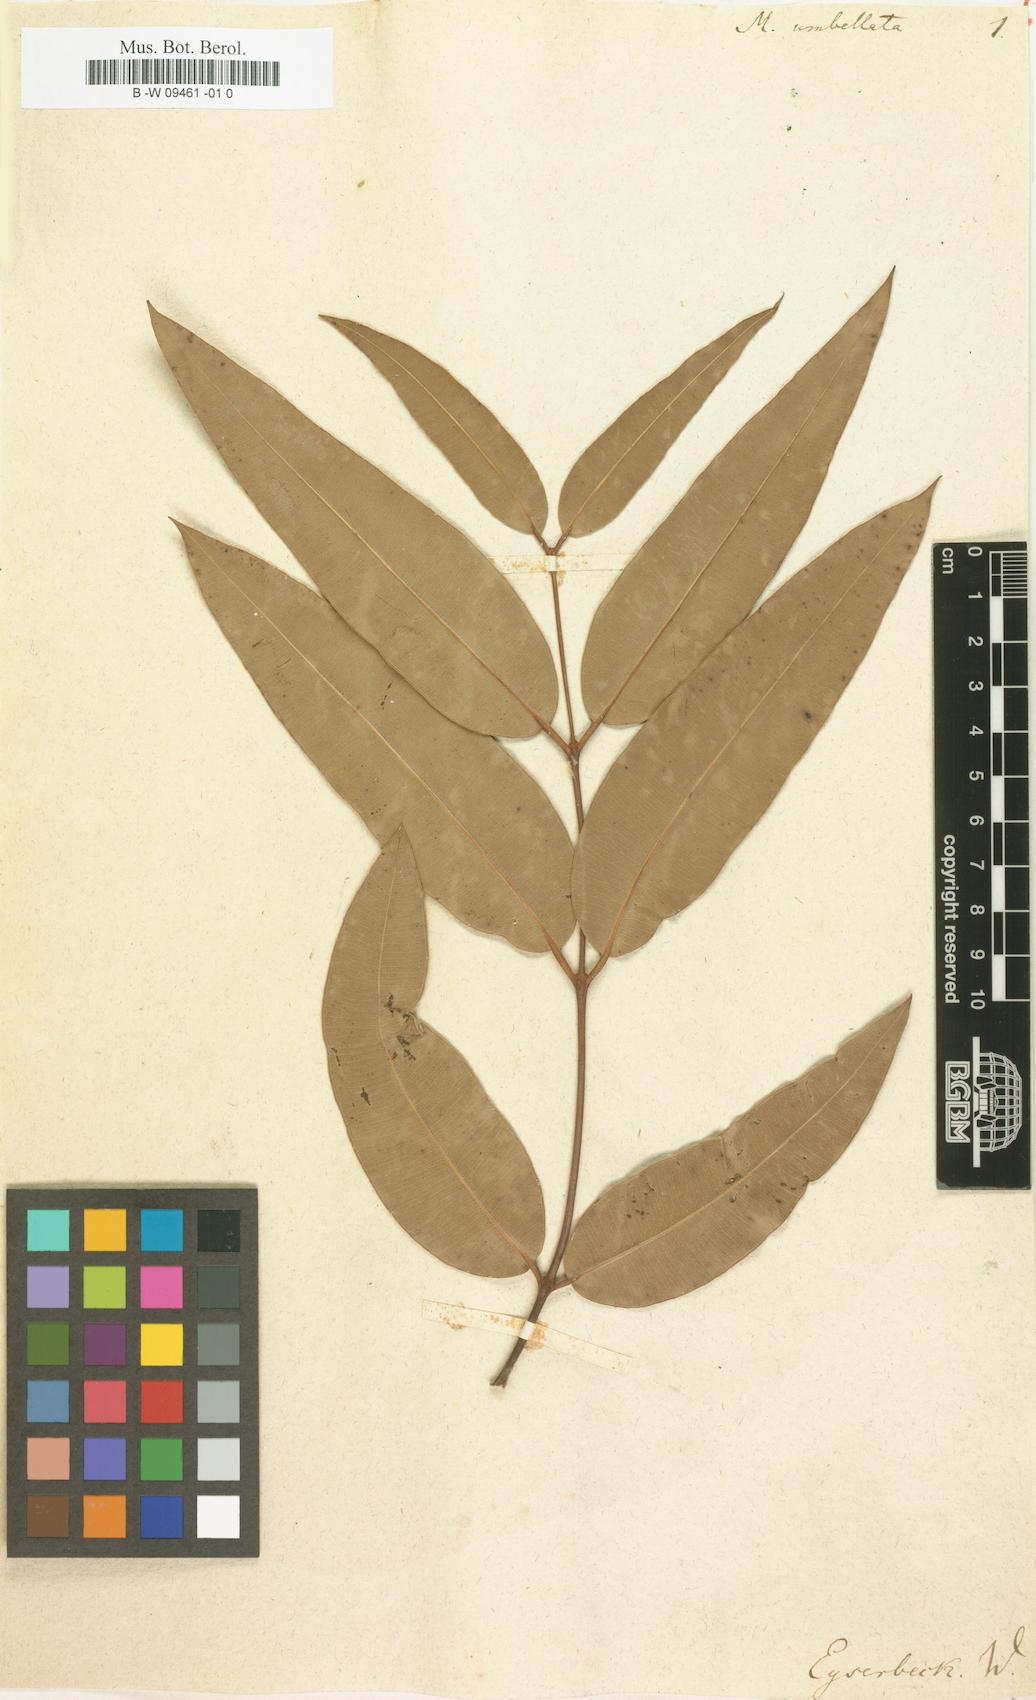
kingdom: Plantae
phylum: Tracheophyta
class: Magnoliopsida
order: Myrtales
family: Myrtaceae
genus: Metrosideros
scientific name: Metrosideros umbellata
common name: Southern rata
